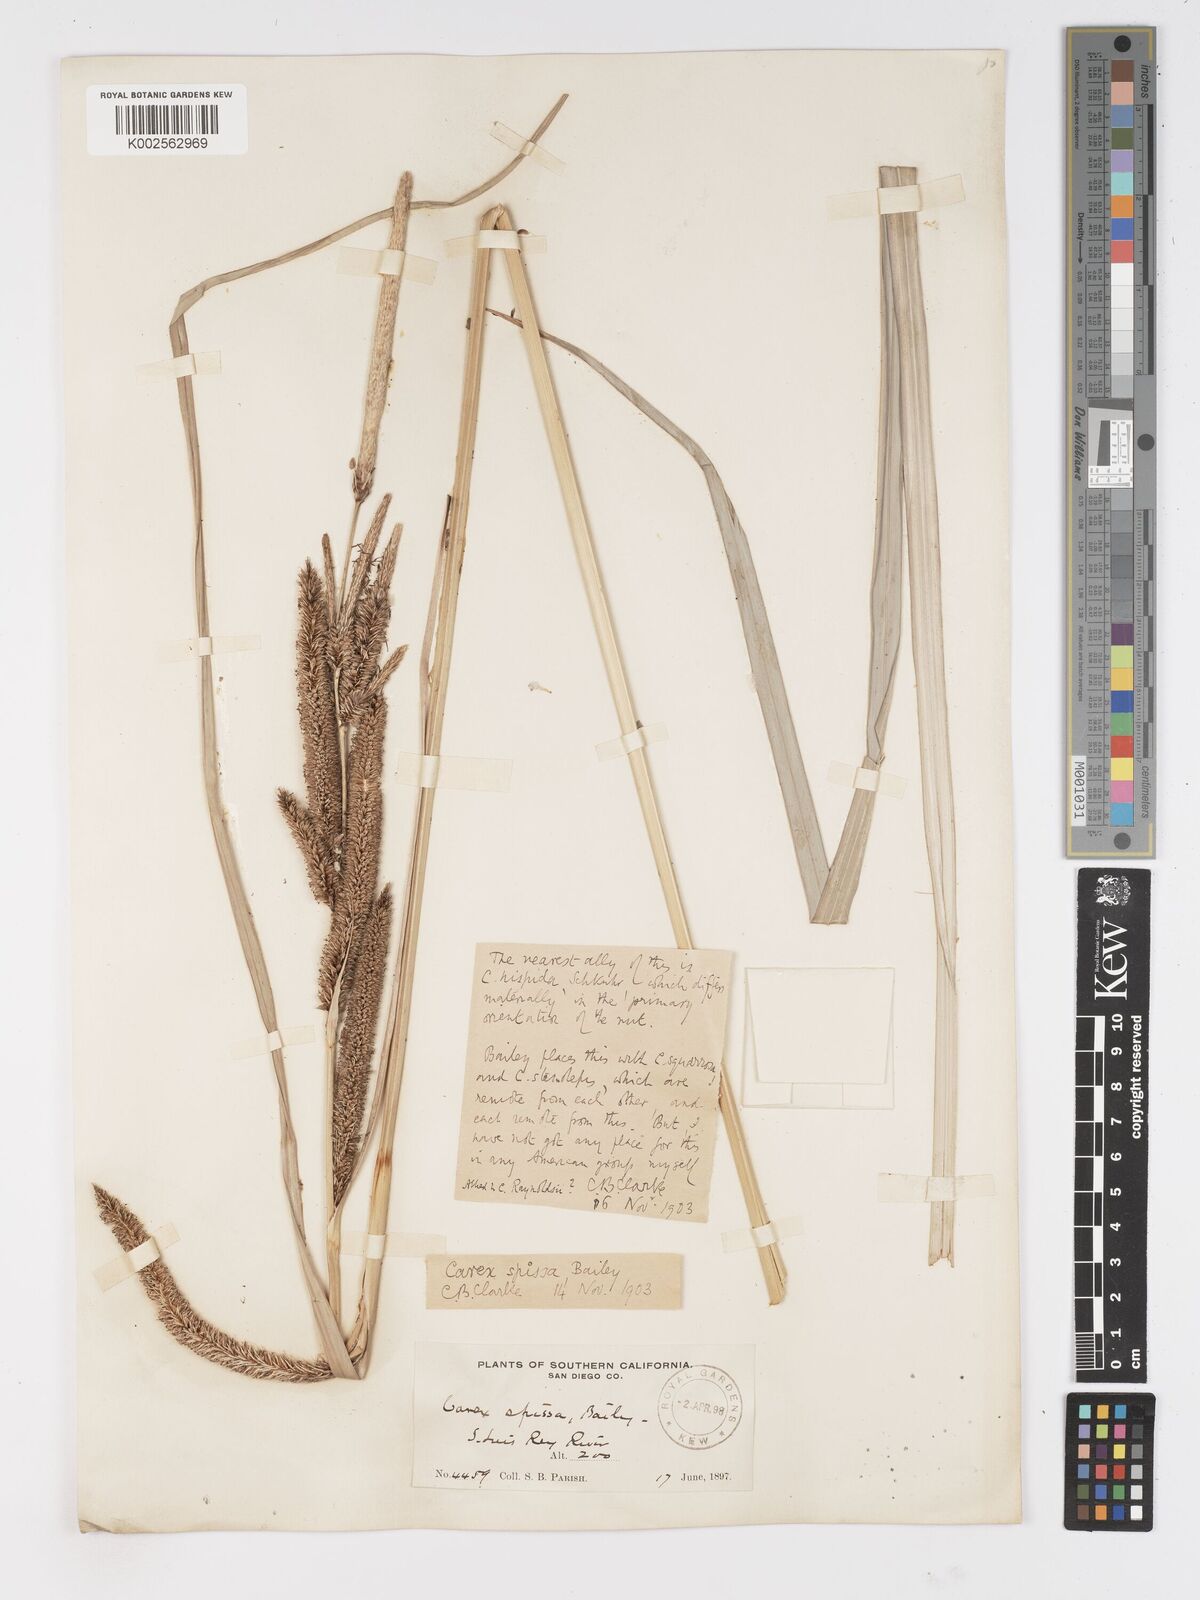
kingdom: Plantae
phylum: Tracheophyta
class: Liliopsida
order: Poales
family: Cyperaceae
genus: Carex
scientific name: Carex spissa
